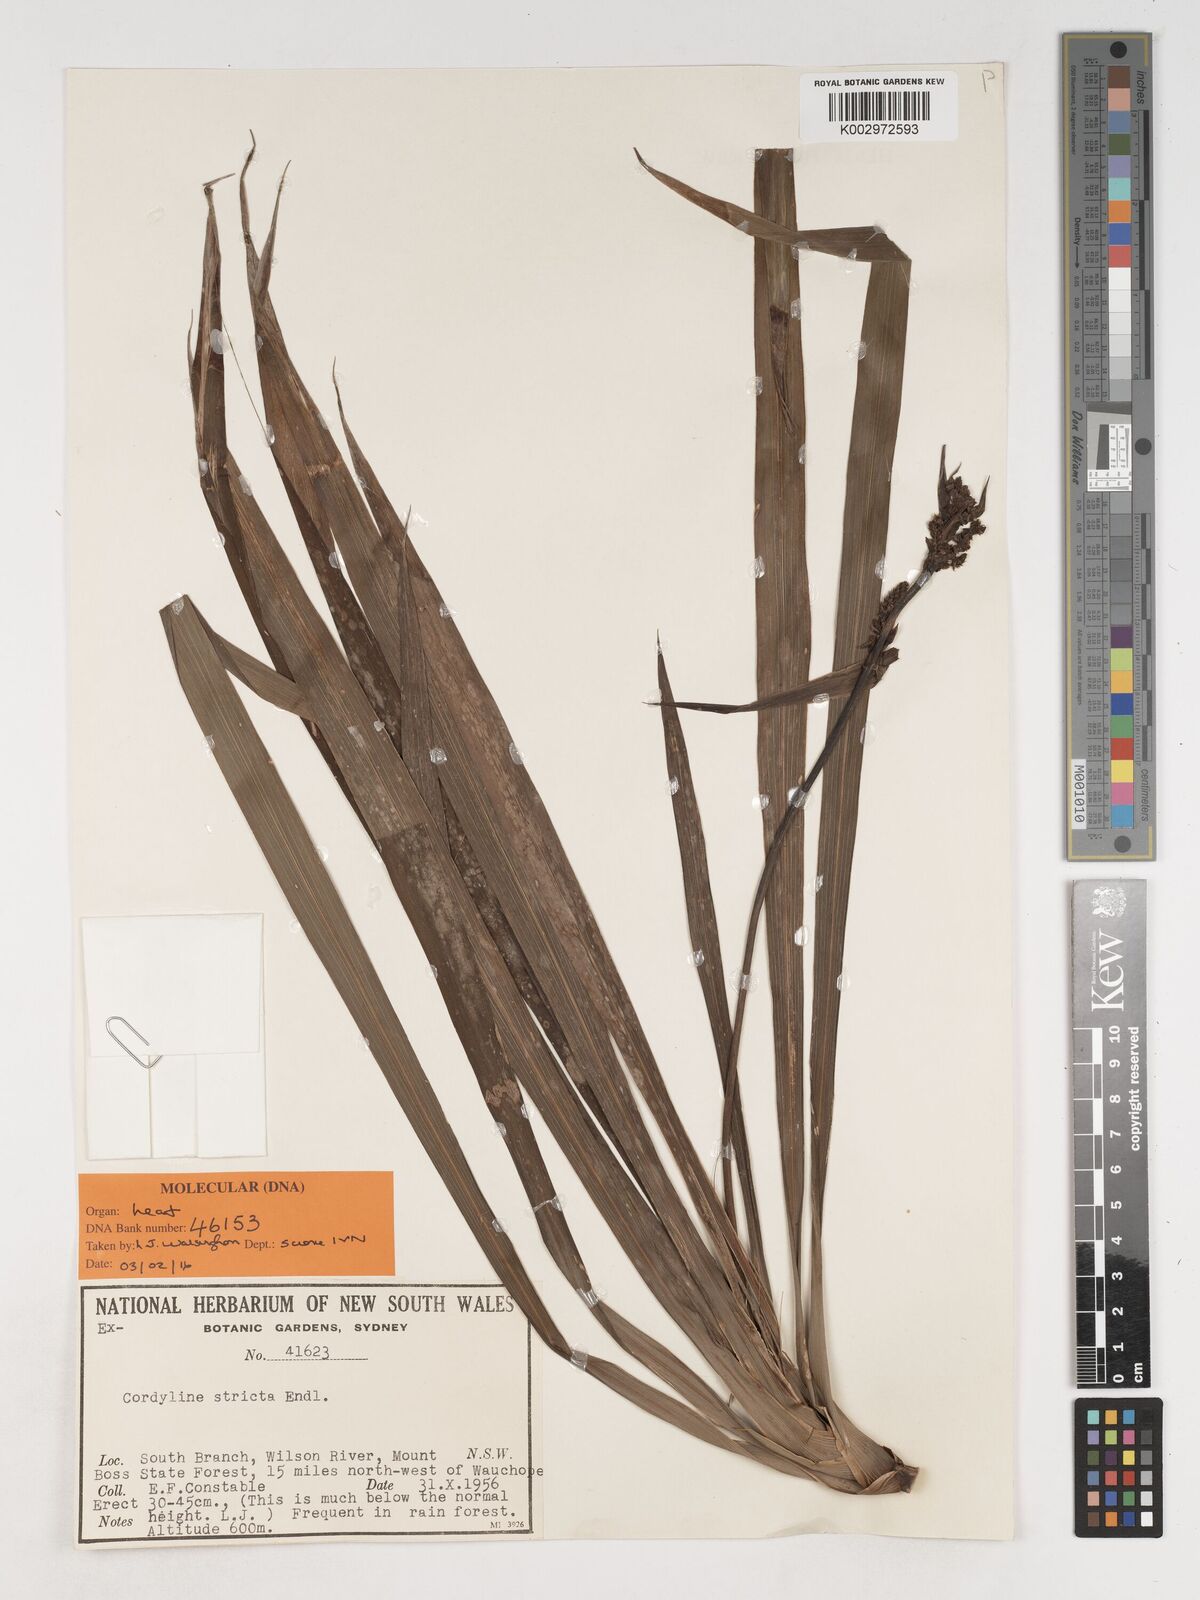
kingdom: Plantae
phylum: Tracheophyta
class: Liliopsida
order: Asparagales
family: Asparagaceae
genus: Cordyline
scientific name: Cordyline stricta
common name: Narrow-leaf palm-lily
